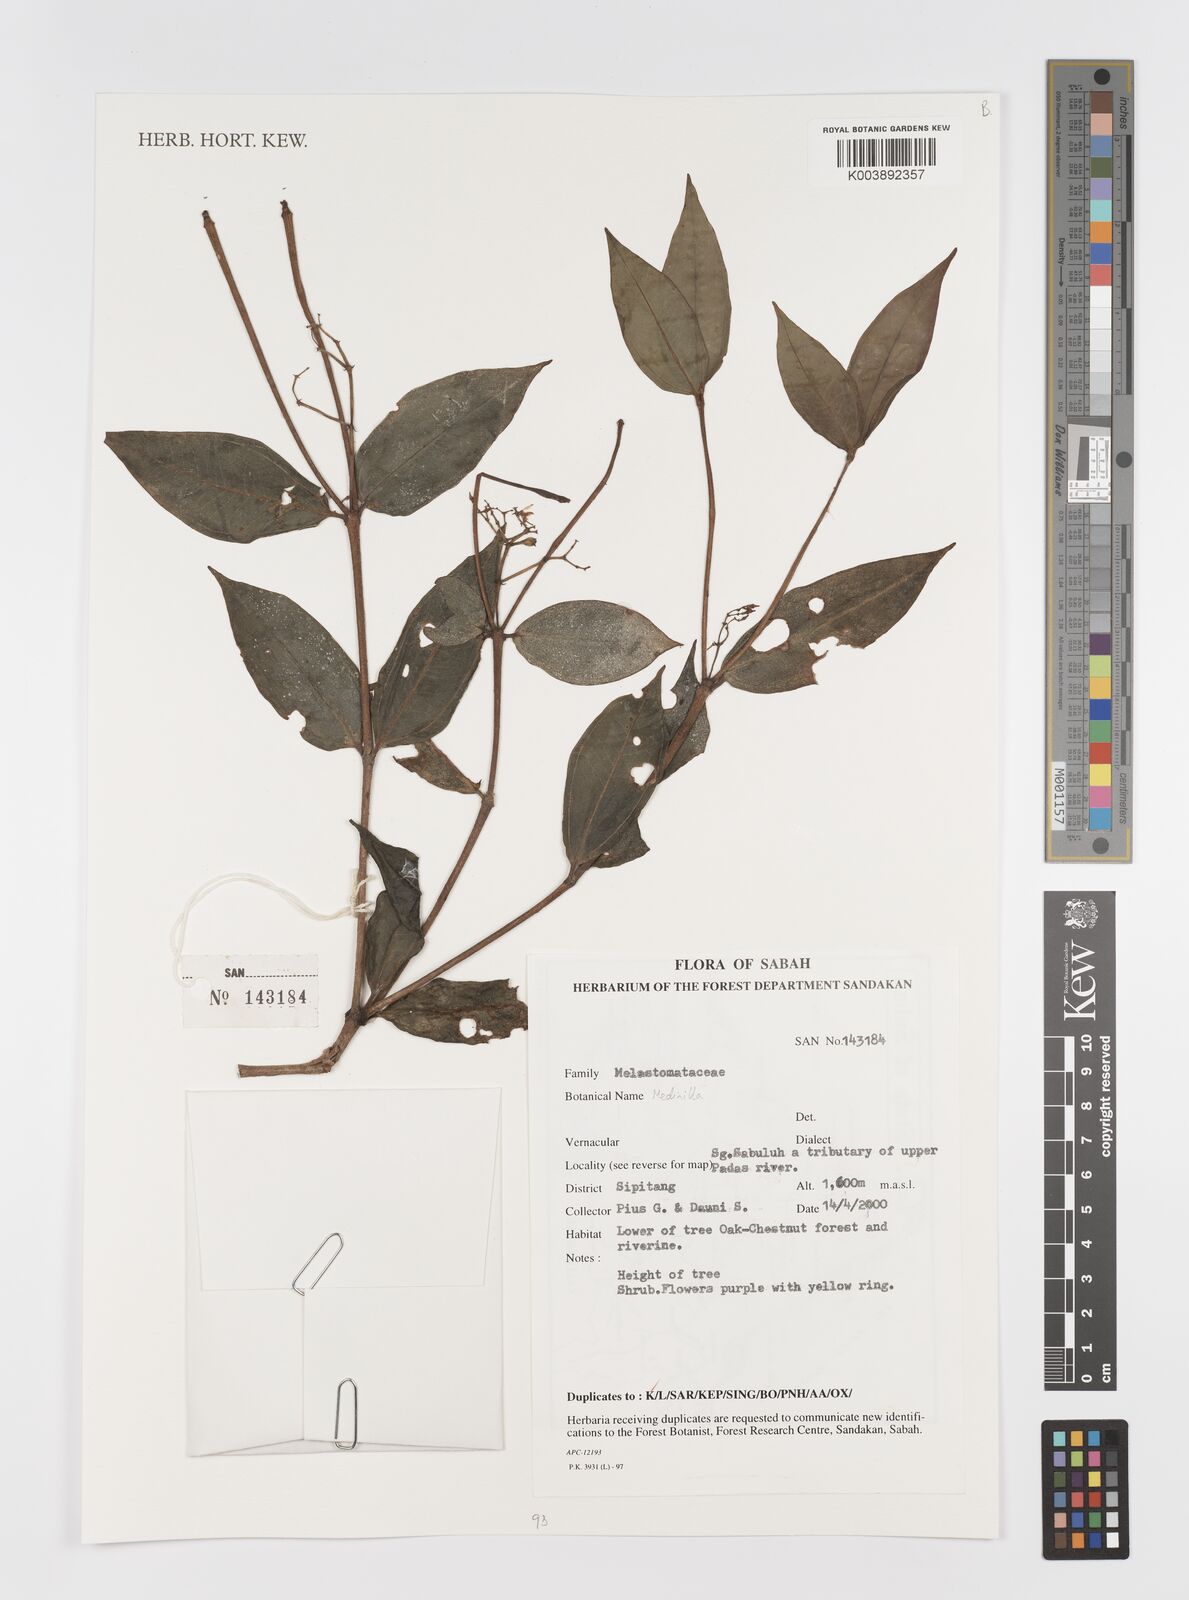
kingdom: Plantae
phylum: Tracheophyta
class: Magnoliopsida
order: Myrtales
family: Melastomataceae
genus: Medinilla
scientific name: Medinilla
